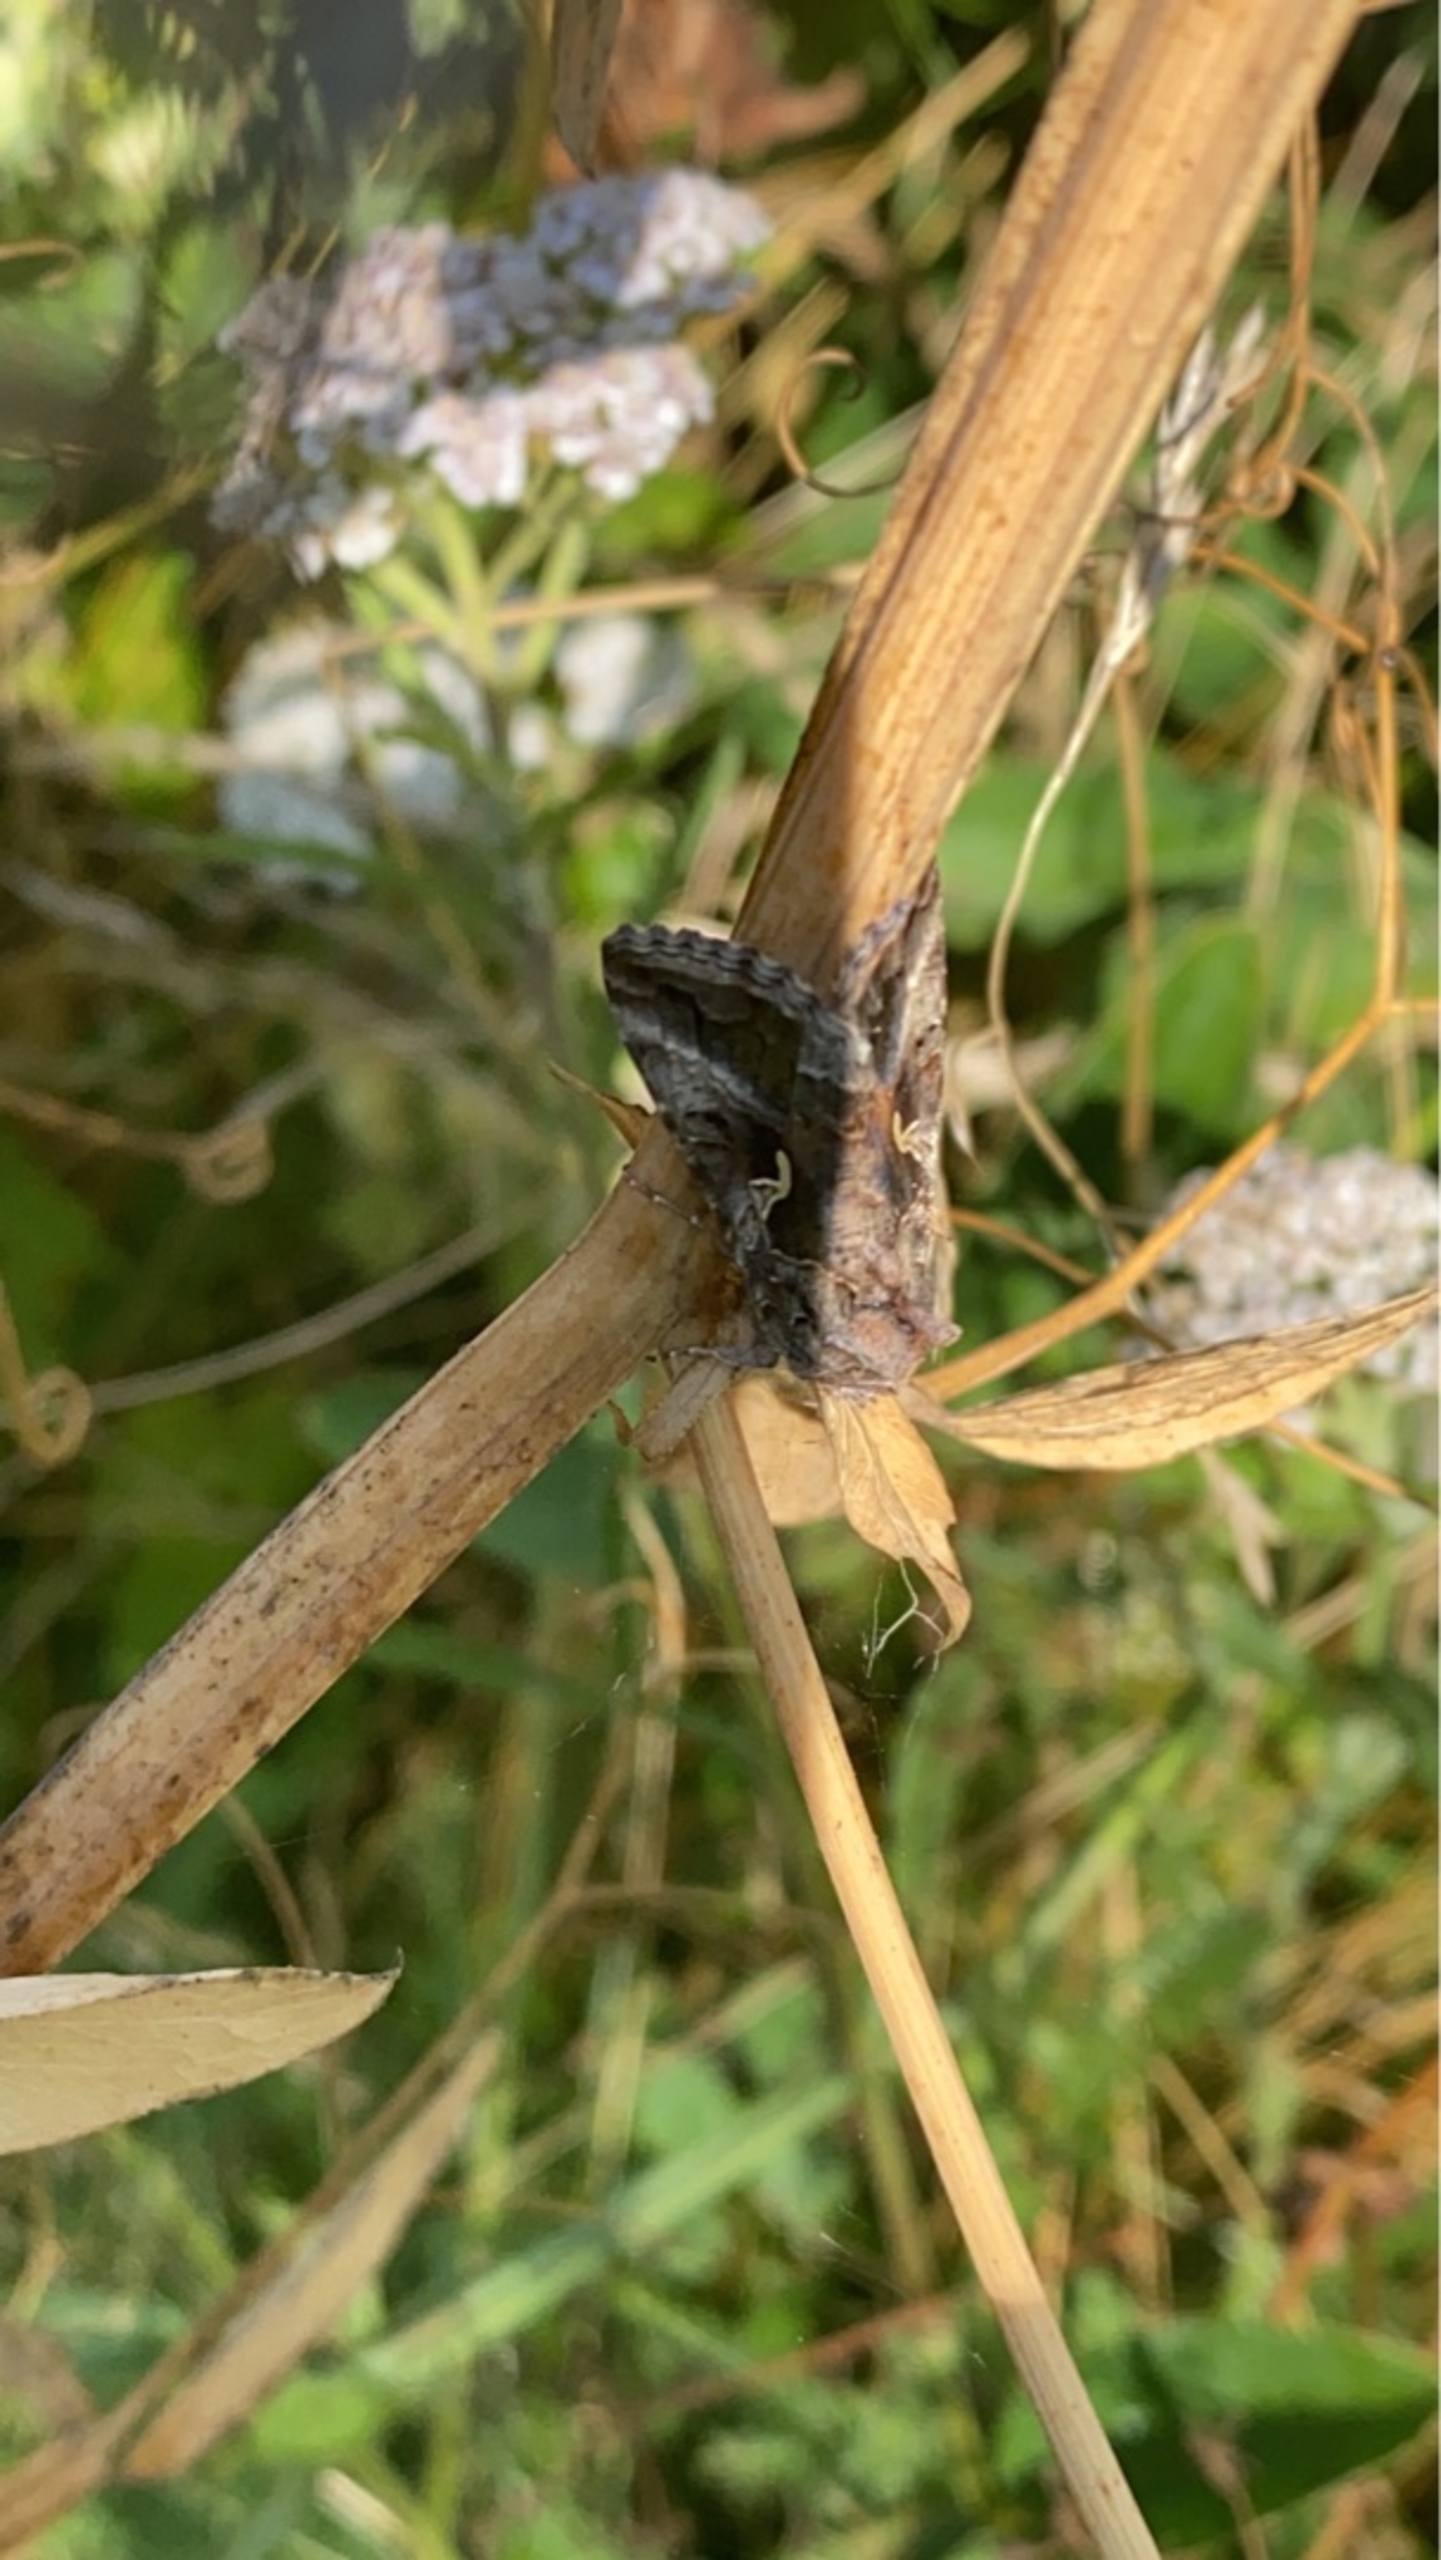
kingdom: Animalia
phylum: Arthropoda
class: Insecta
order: Lepidoptera
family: Noctuidae
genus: Autographa
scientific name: Autographa gamma
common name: Gammaugle
